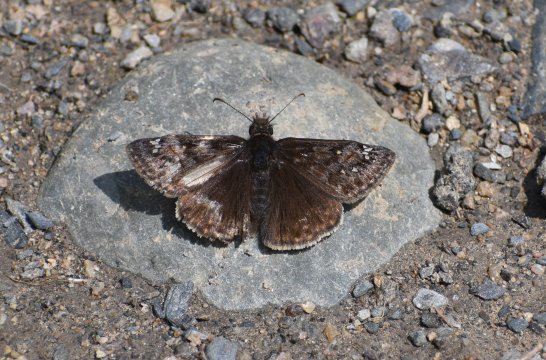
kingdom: Animalia
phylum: Arthropoda
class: Insecta
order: Lepidoptera
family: Hesperiidae
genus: Gesta
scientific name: Gesta
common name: Juvenal's Duskywing
